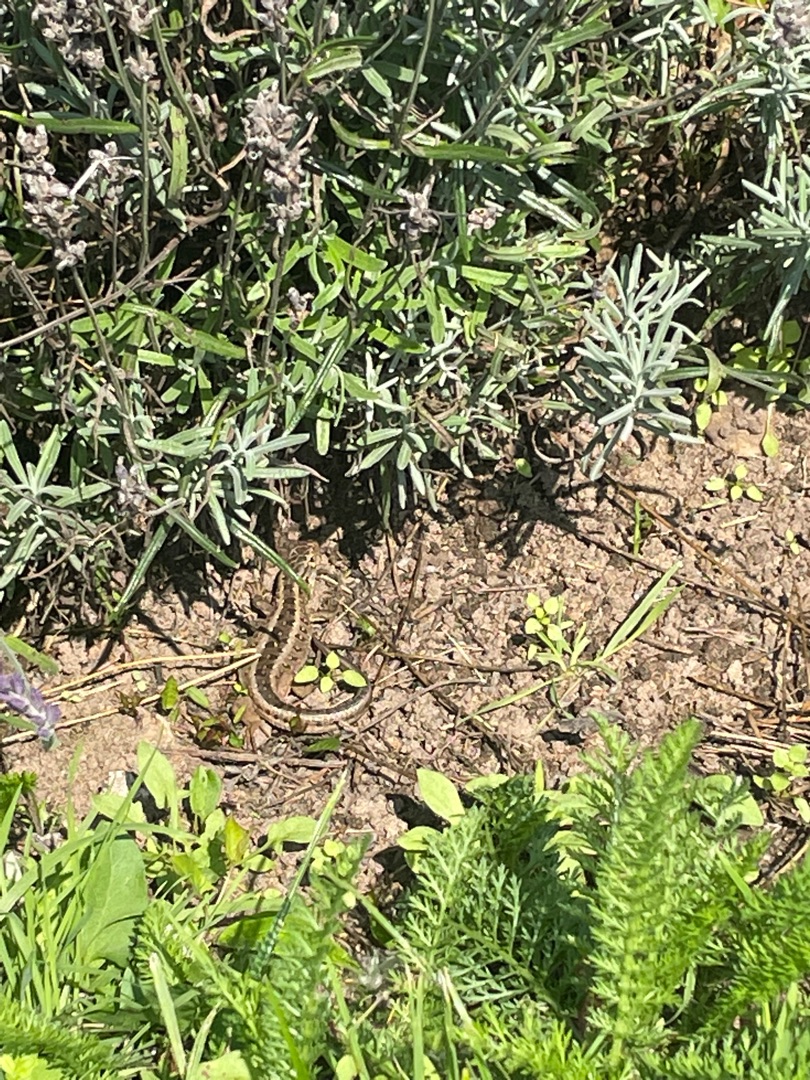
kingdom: Animalia
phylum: Chordata
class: Squamata
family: Lacertidae
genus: Lacerta
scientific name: Lacerta agilis
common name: Markfirben
